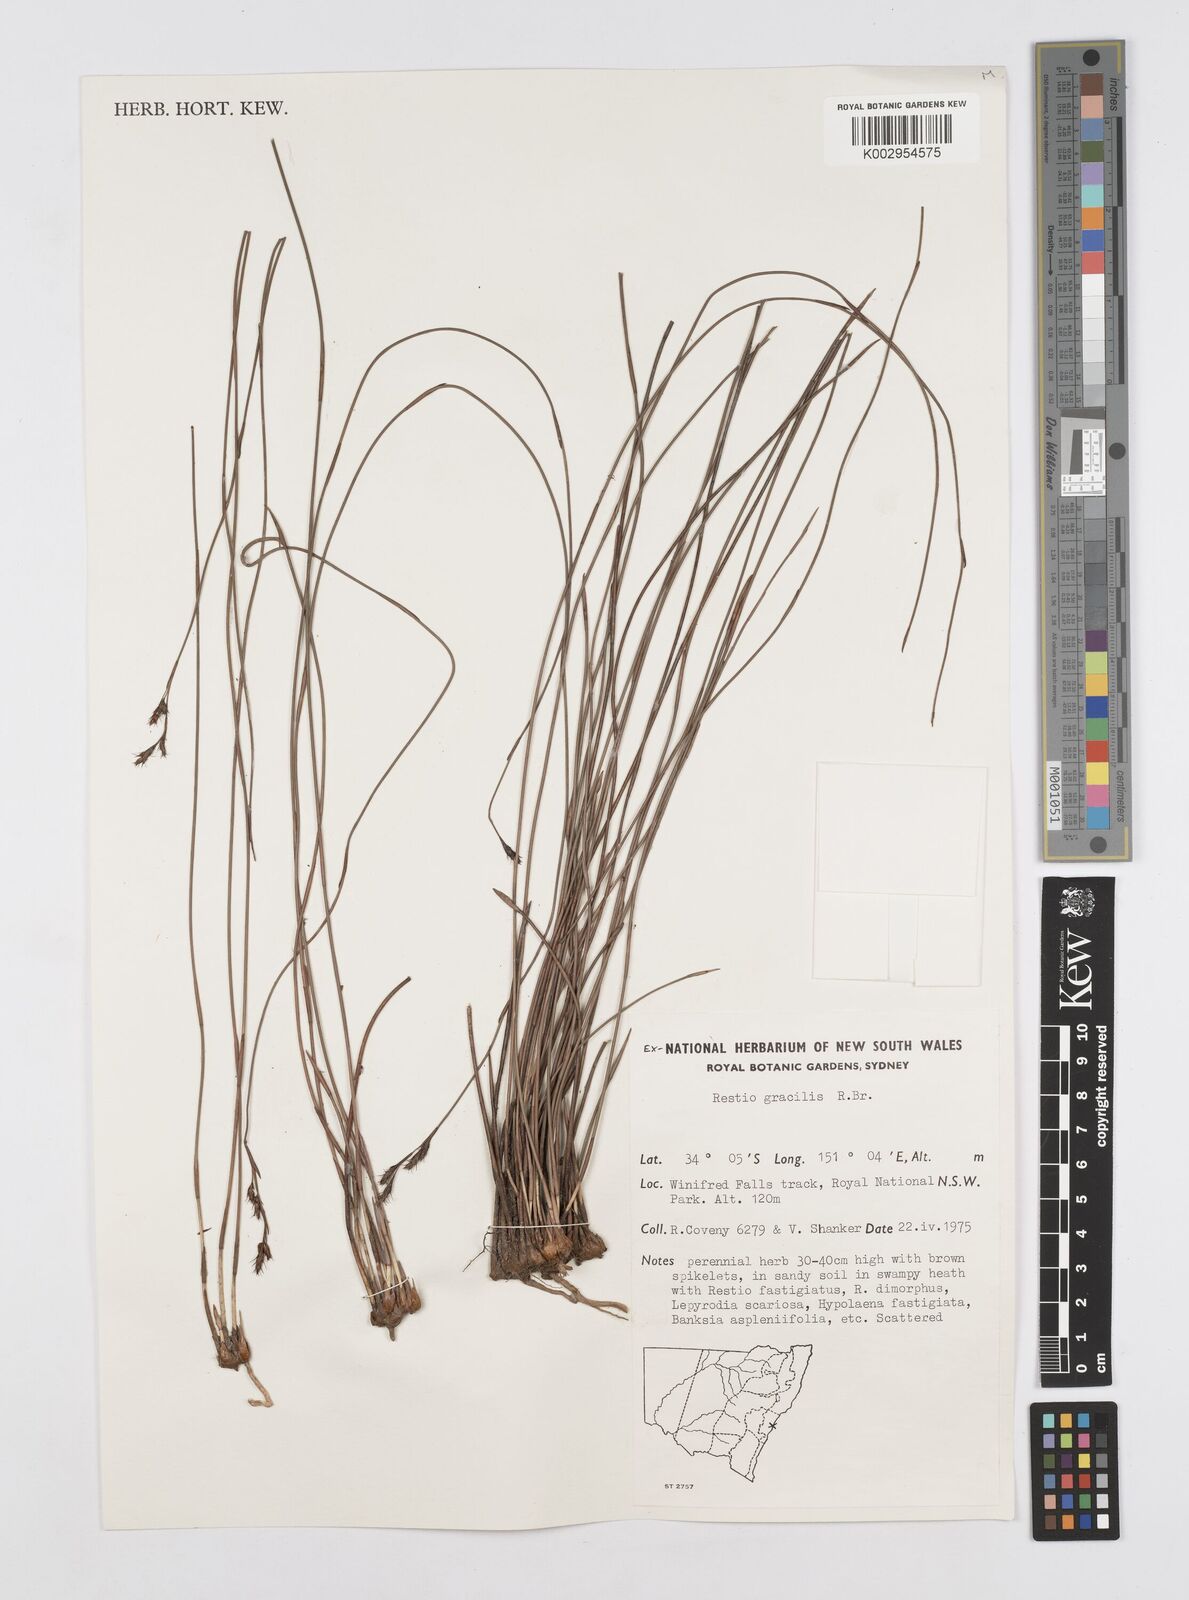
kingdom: Plantae
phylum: Tracheophyta
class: Liliopsida
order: Poales
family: Restionaceae
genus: Baloskion
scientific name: Baloskion gracile
